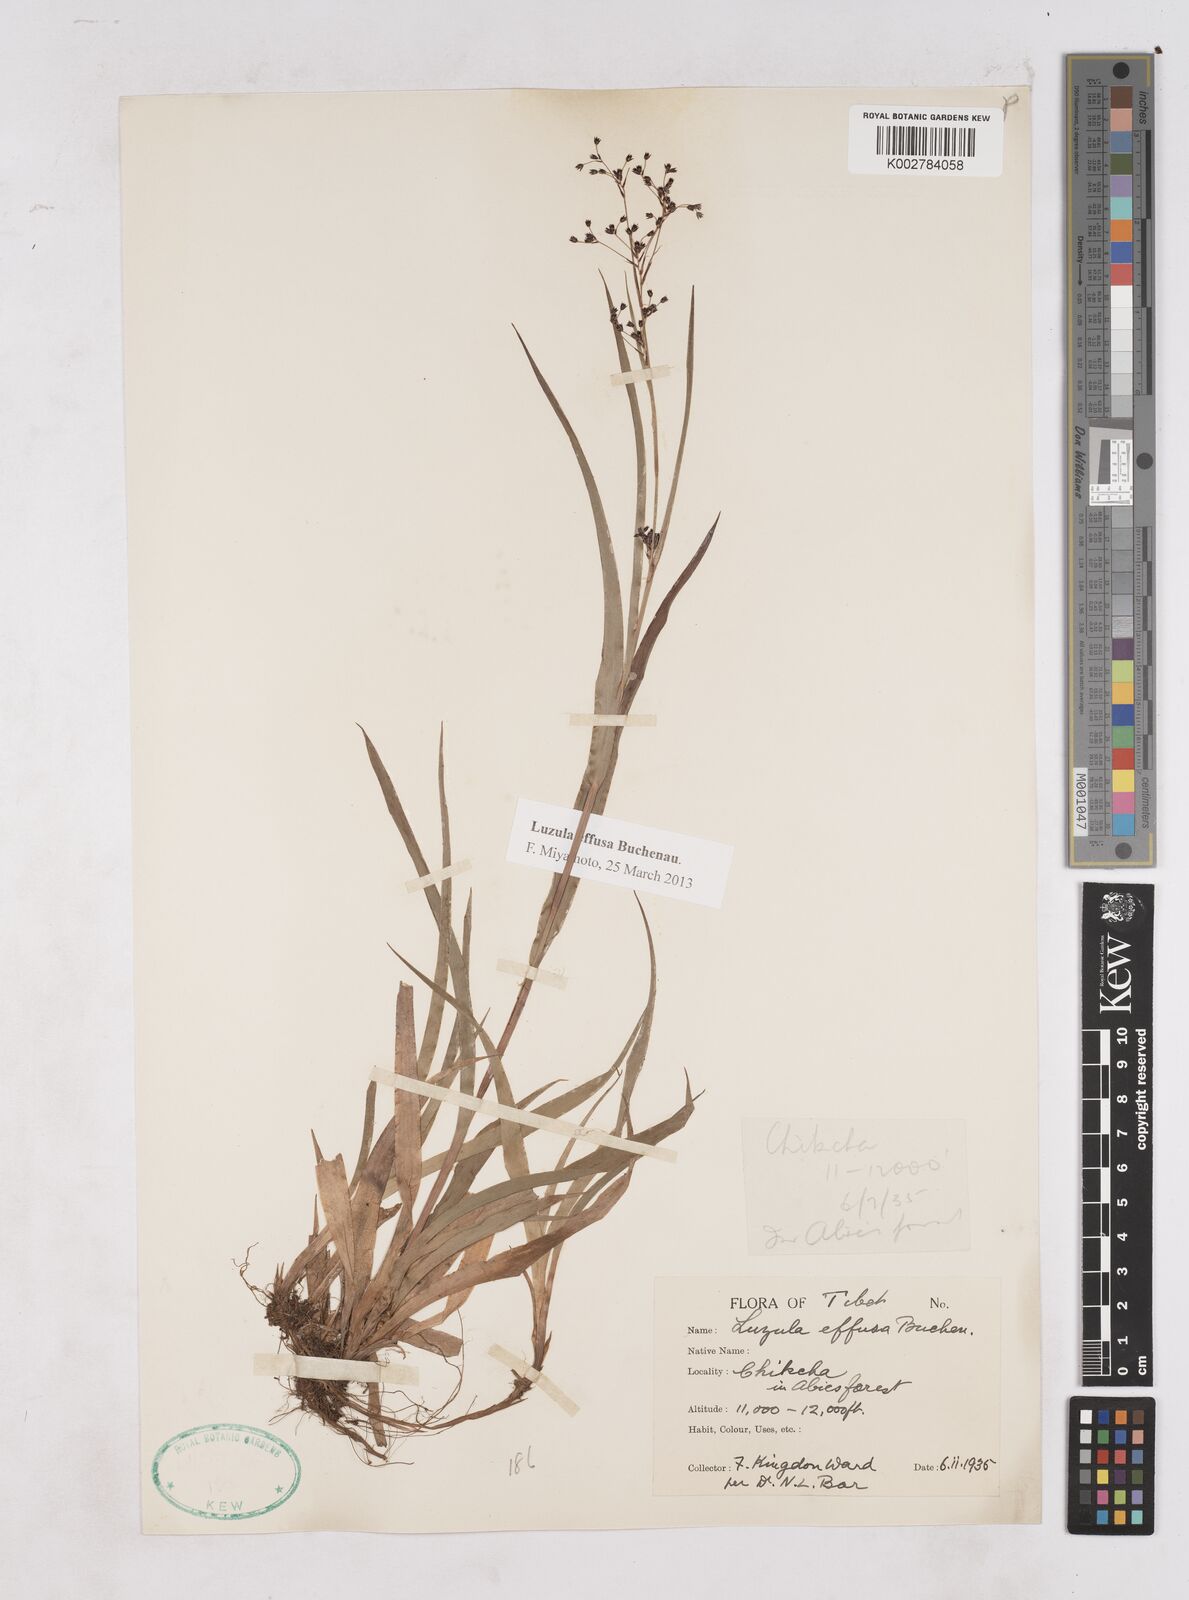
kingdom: Plantae
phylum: Tracheophyta
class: Liliopsida
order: Poales
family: Juncaceae
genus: Luzula
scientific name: Luzula effusa
